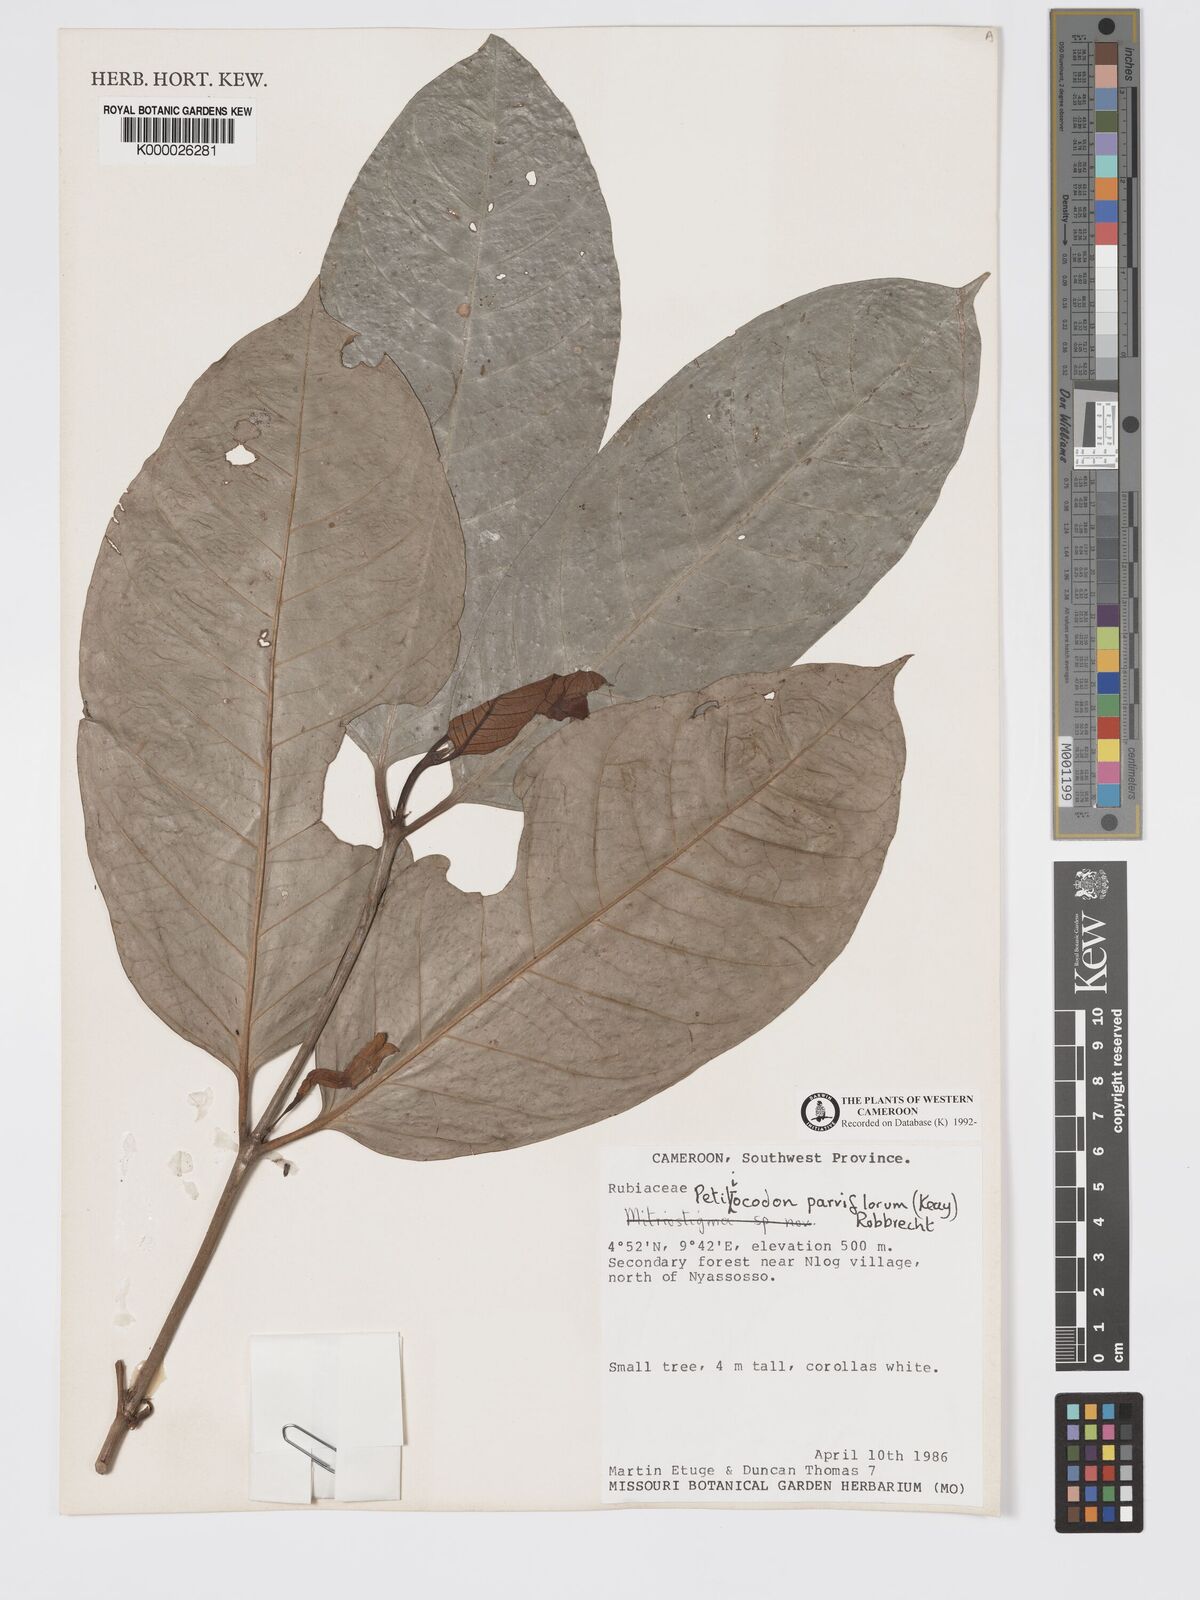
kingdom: Plantae
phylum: Tracheophyta
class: Magnoliopsida
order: Gentianales
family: Rubiaceae
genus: Petitiocodon
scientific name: Petitiocodon parviflorum
